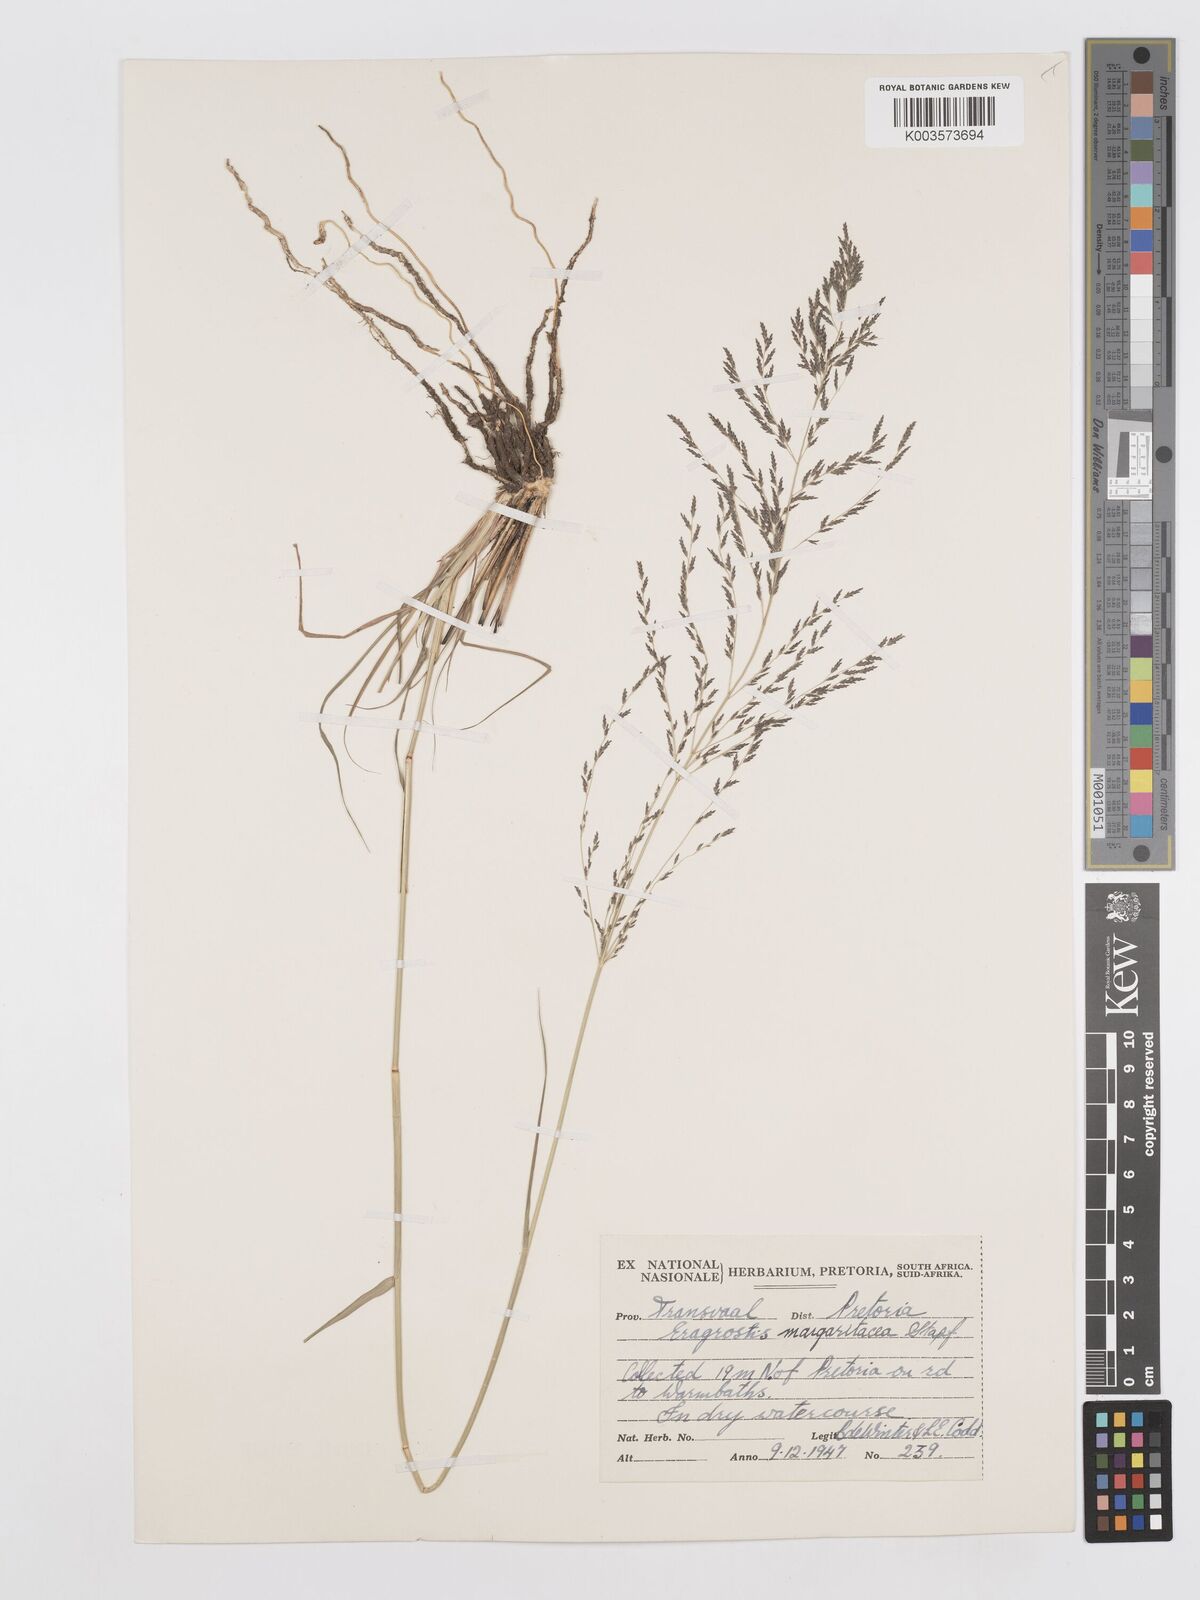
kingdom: Plantae
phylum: Tracheophyta
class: Liliopsida
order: Poales
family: Poaceae
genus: Eragrostis
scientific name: Eragrostis rotifer
